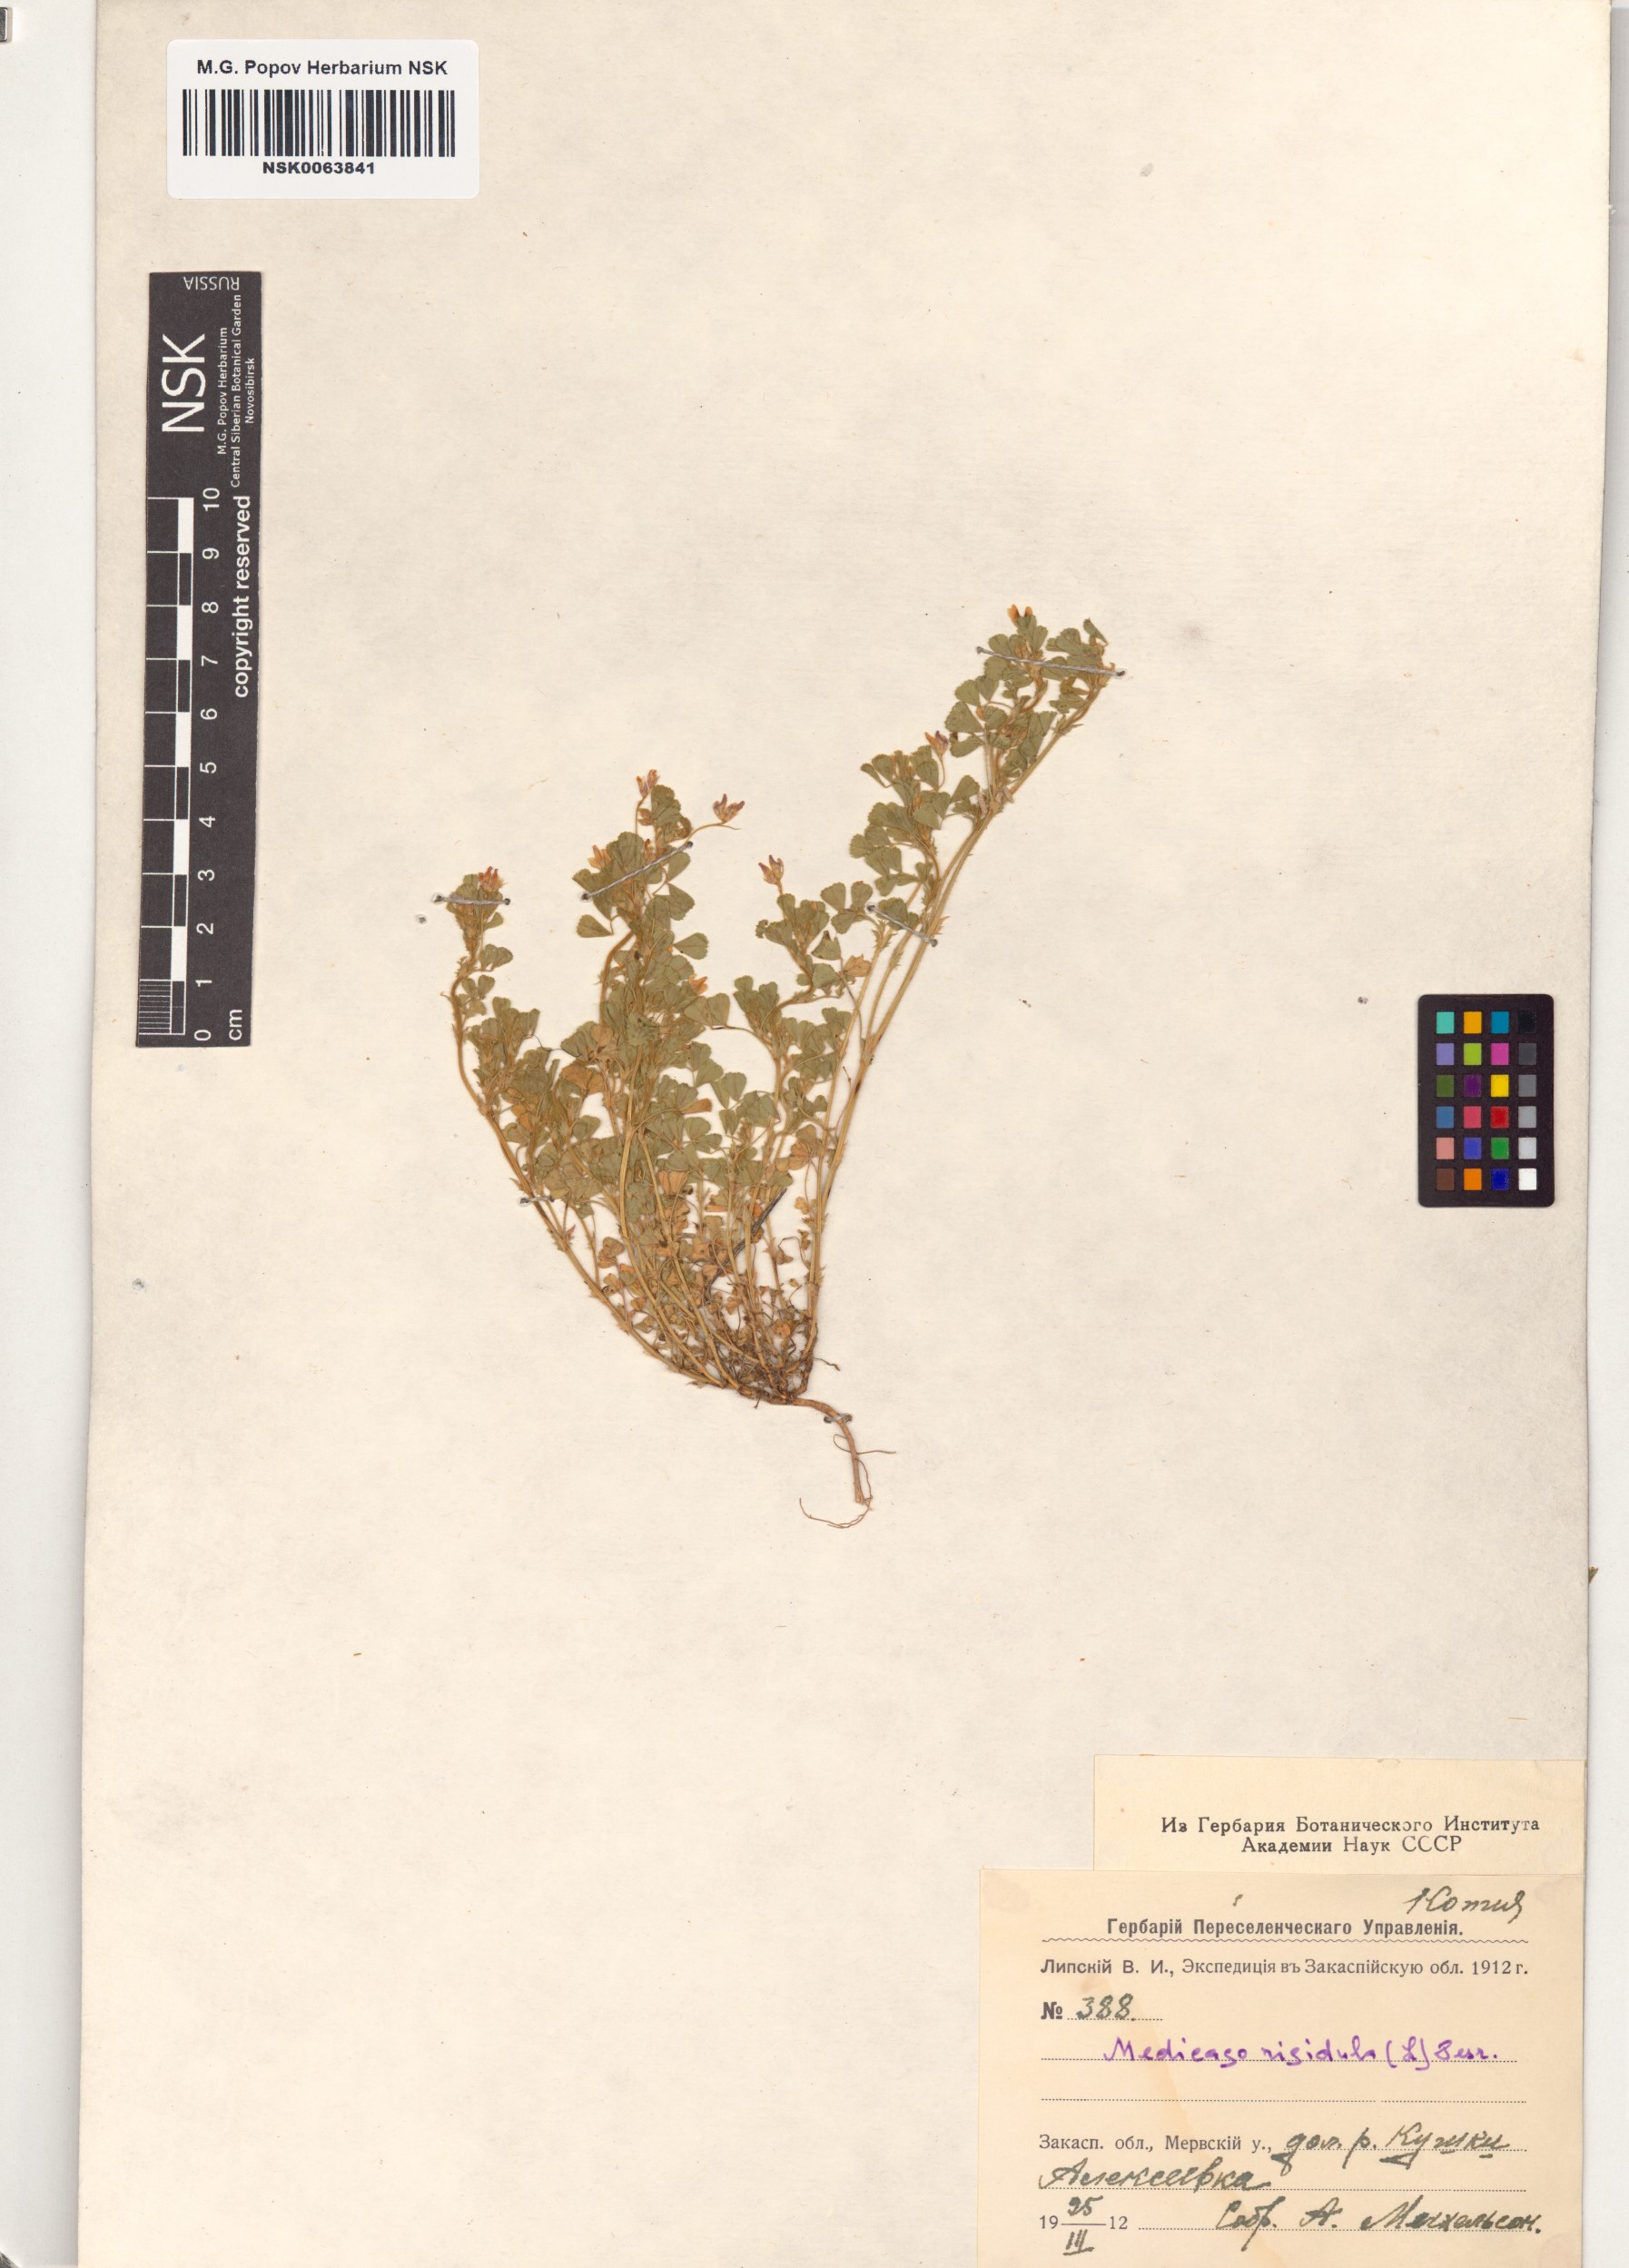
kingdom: Plantae
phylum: Tracheophyta
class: Magnoliopsida
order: Fabales
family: Fabaceae
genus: Medicago
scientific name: Medicago rigidula
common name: Tifton medic
